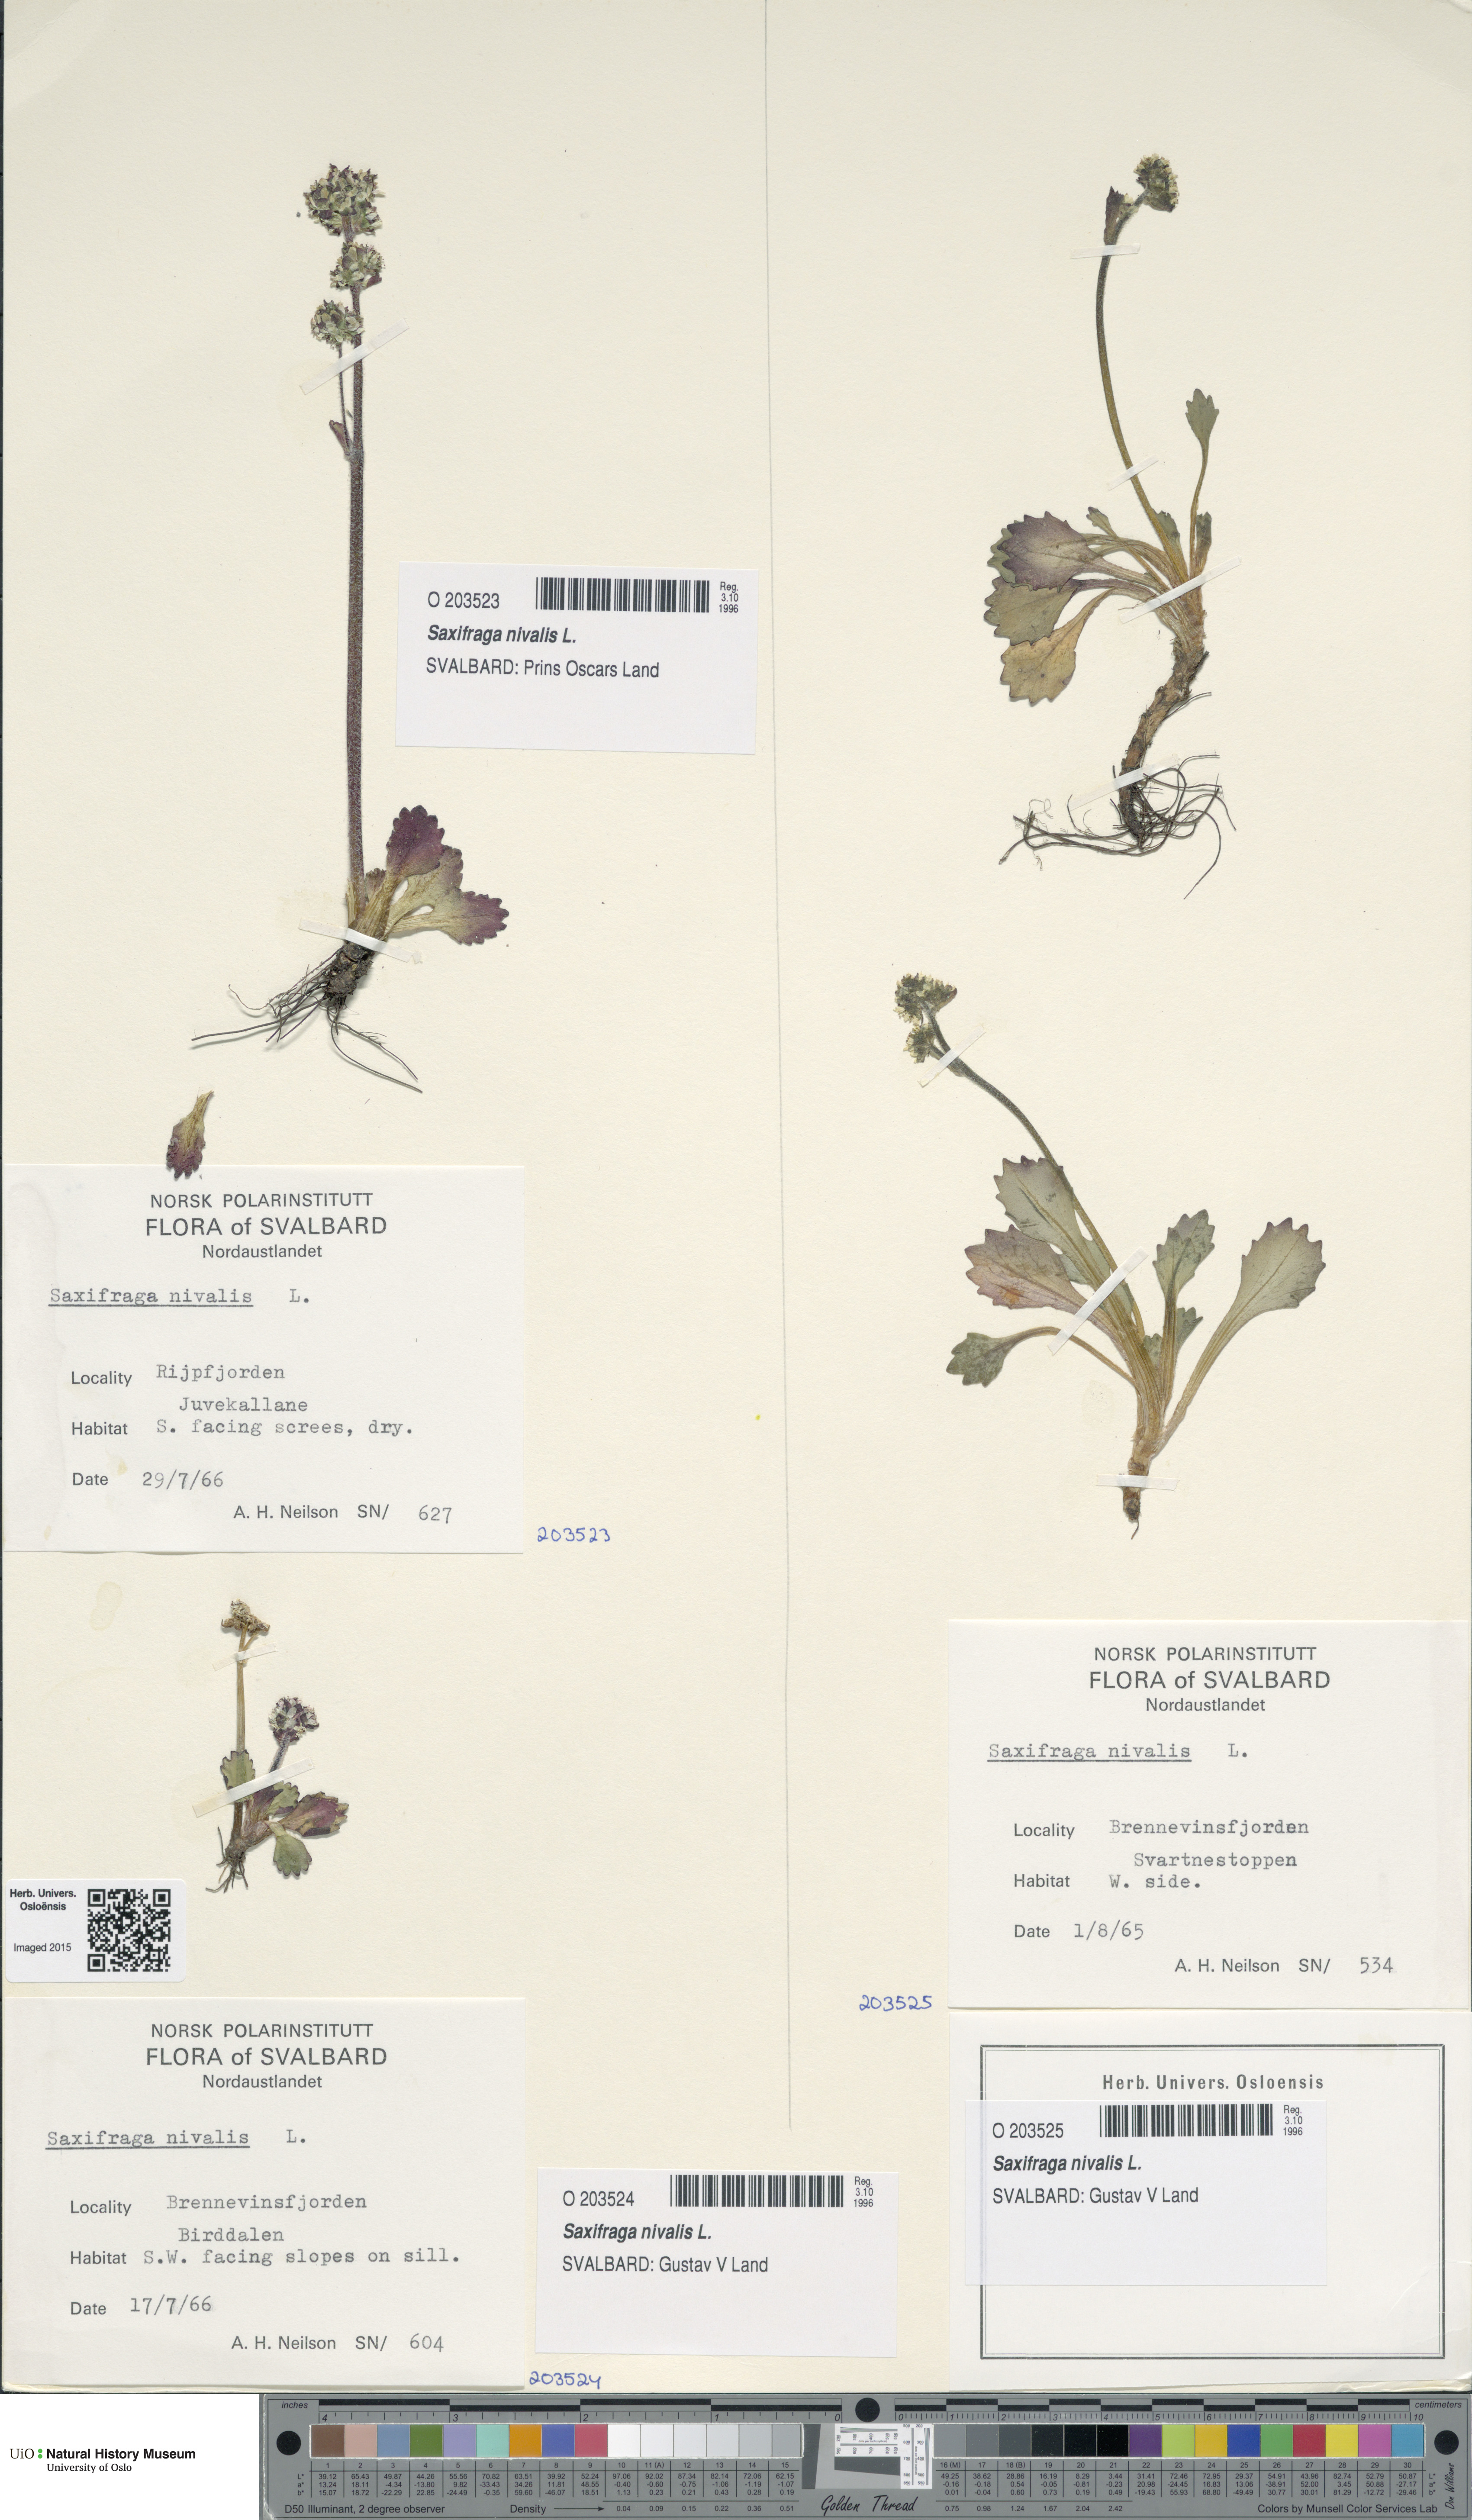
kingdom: Plantae
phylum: Tracheophyta
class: Magnoliopsida
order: Saxifragales
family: Saxifragaceae
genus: Micranthes
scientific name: Micranthes nivalis
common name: Alpine saxifrage
